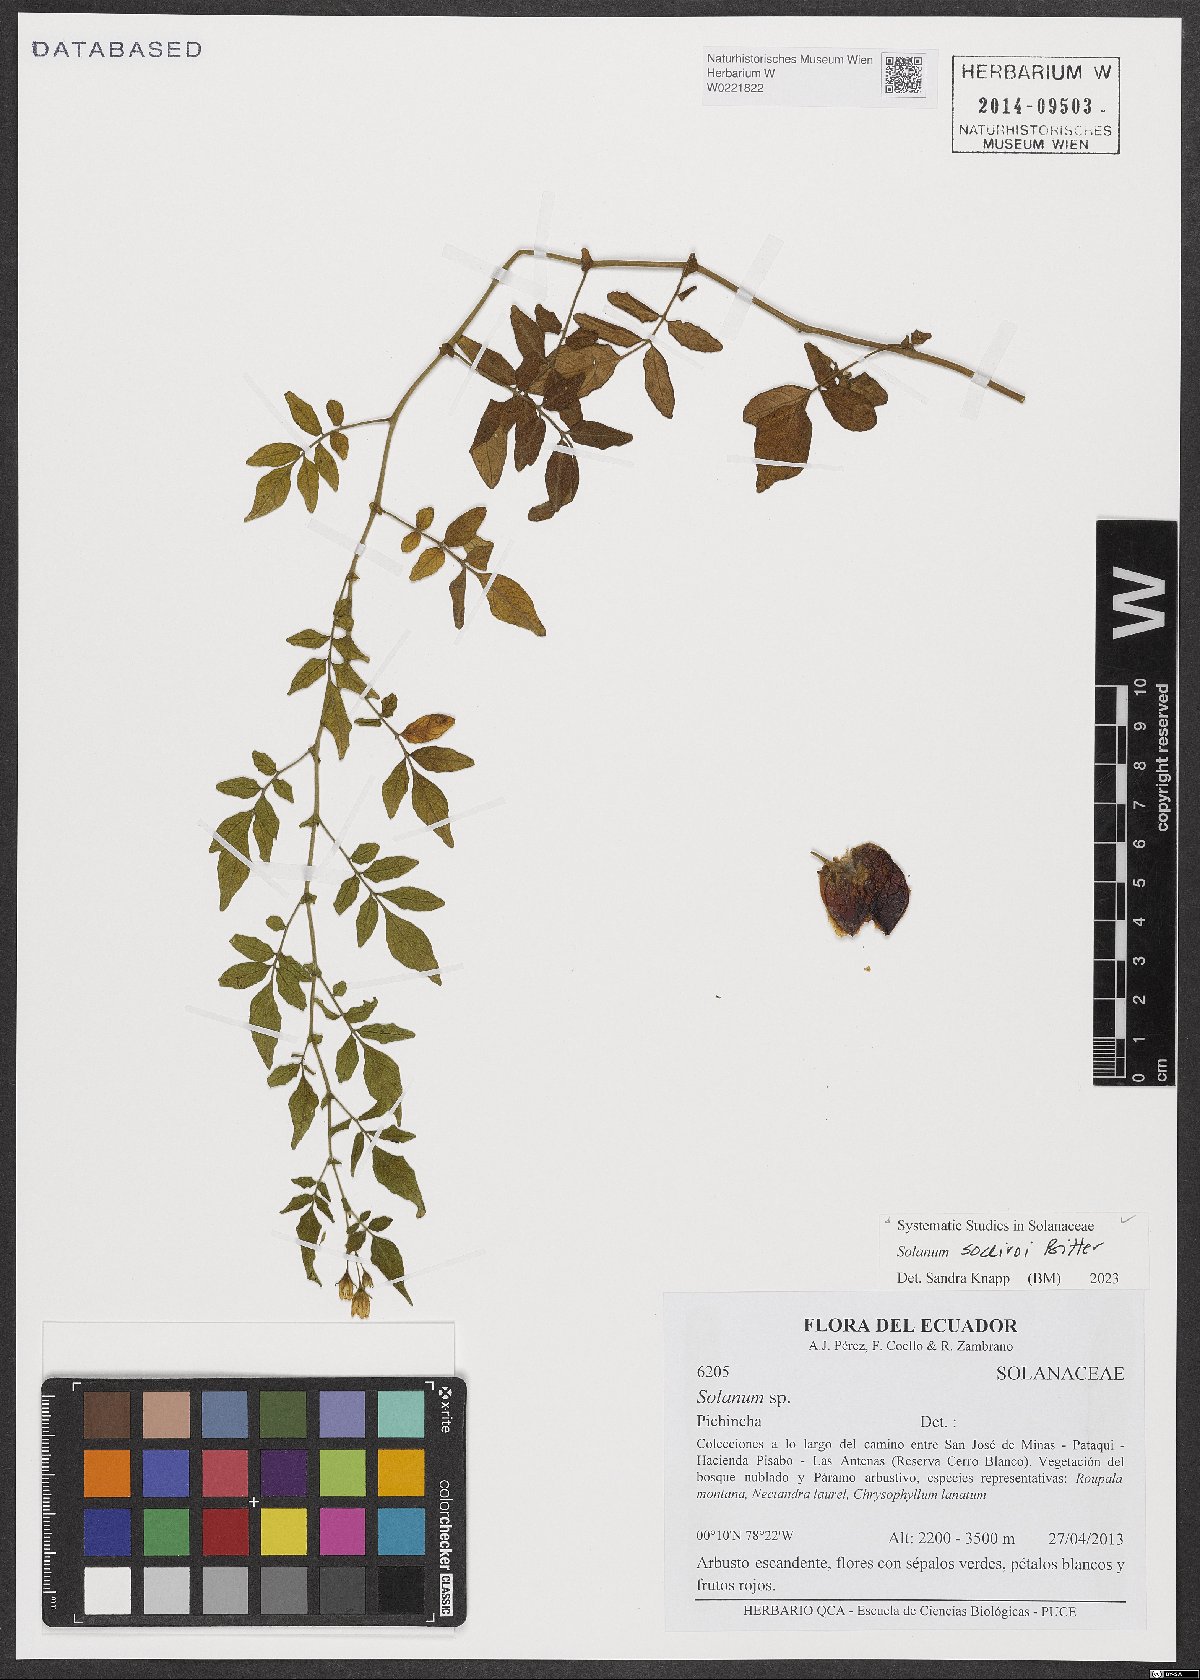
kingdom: Plantae
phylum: Tracheophyta
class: Magnoliopsida
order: Solanales
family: Solanaceae
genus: Solanum
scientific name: Solanum sodiroi
